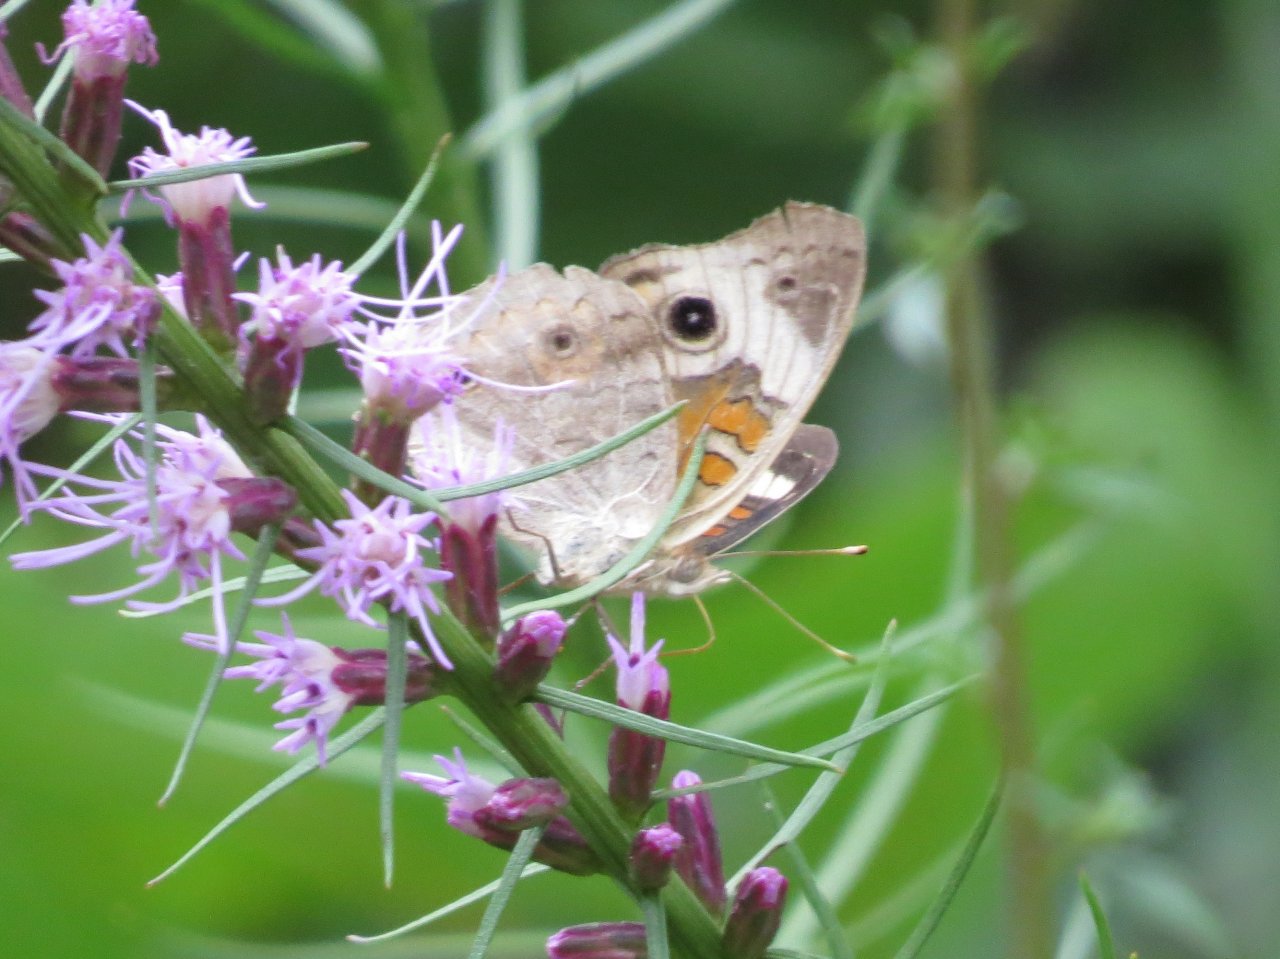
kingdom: Animalia
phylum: Arthropoda
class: Insecta
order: Lepidoptera
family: Nymphalidae
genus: Junonia
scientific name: Junonia coenia
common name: Common Buckeye
